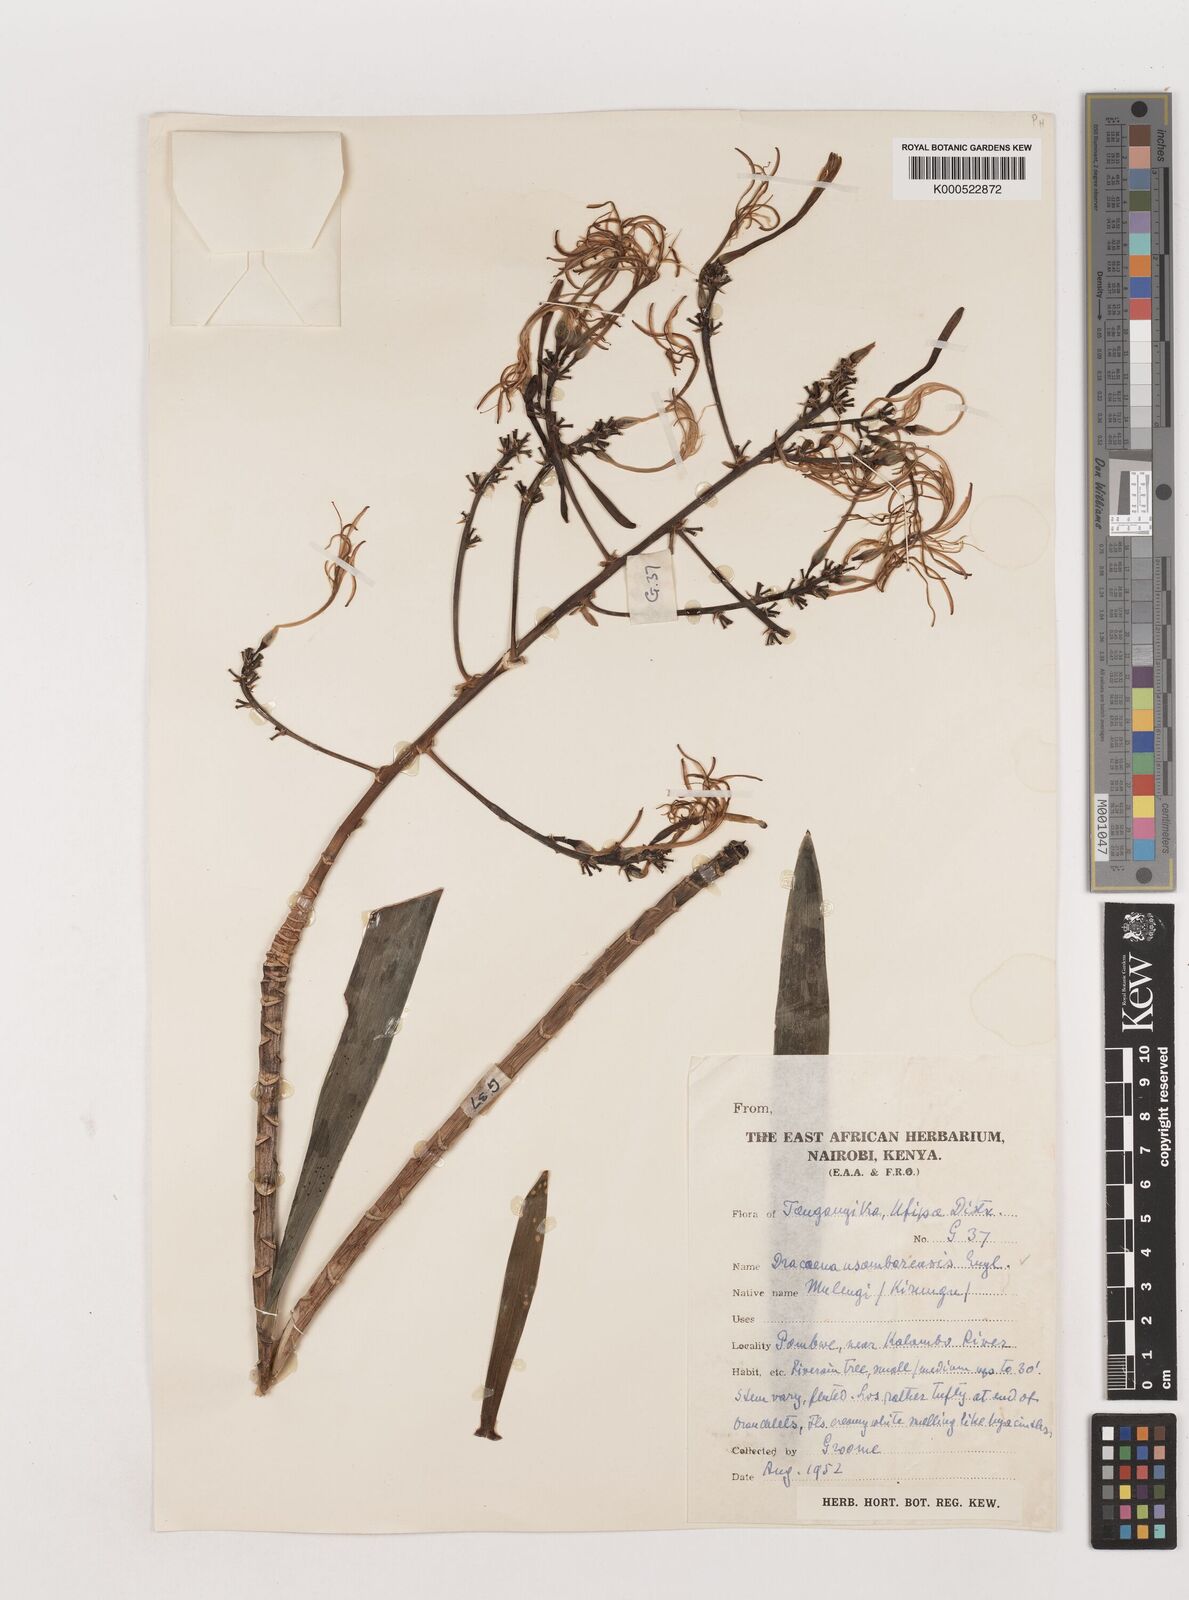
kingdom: Plantae
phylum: Tracheophyta
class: Liliopsida
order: Asparagales
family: Asparagaceae
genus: Dracaena
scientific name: Dracaena usambarensis
